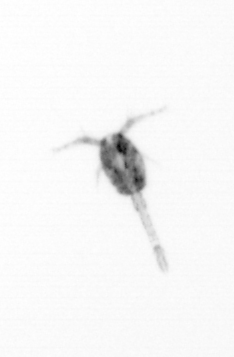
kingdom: Animalia
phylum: Arthropoda
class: Copepoda
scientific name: Copepoda
